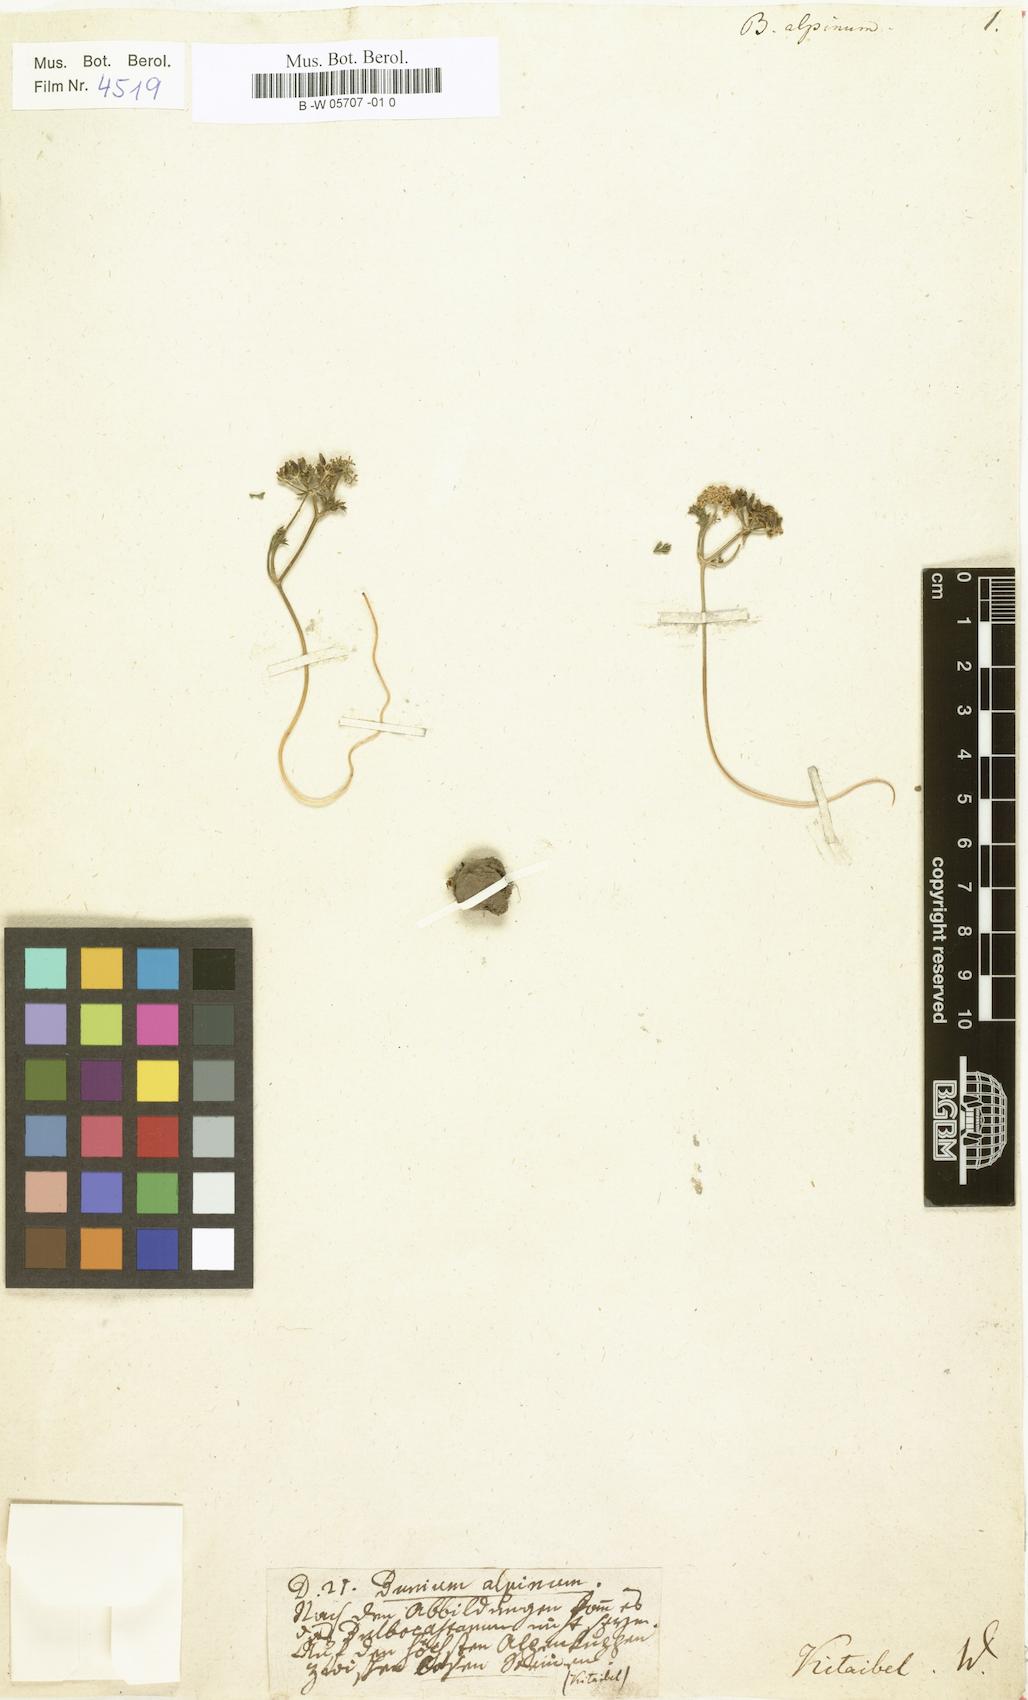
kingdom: Plantae
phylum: Tracheophyta
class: Magnoliopsida
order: Apiales
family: Apiaceae
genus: Bunium
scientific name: Bunium alpinum
